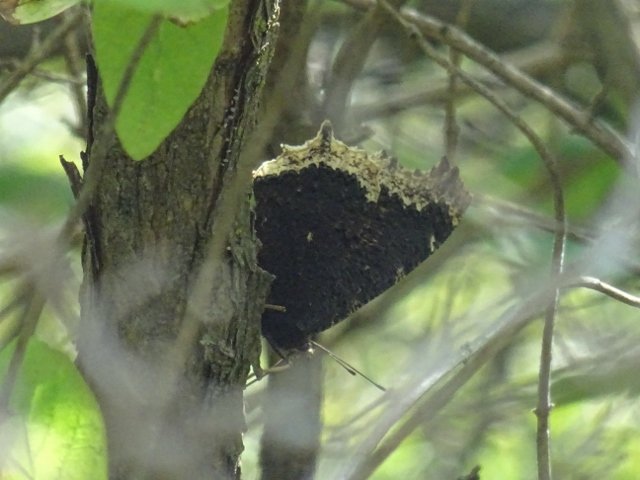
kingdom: Animalia
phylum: Arthropoda
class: Insecta
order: Lepidoptera
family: Nymphalidae
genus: Nymphalis
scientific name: Nymphalis antiopa
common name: Mourning Cloak
